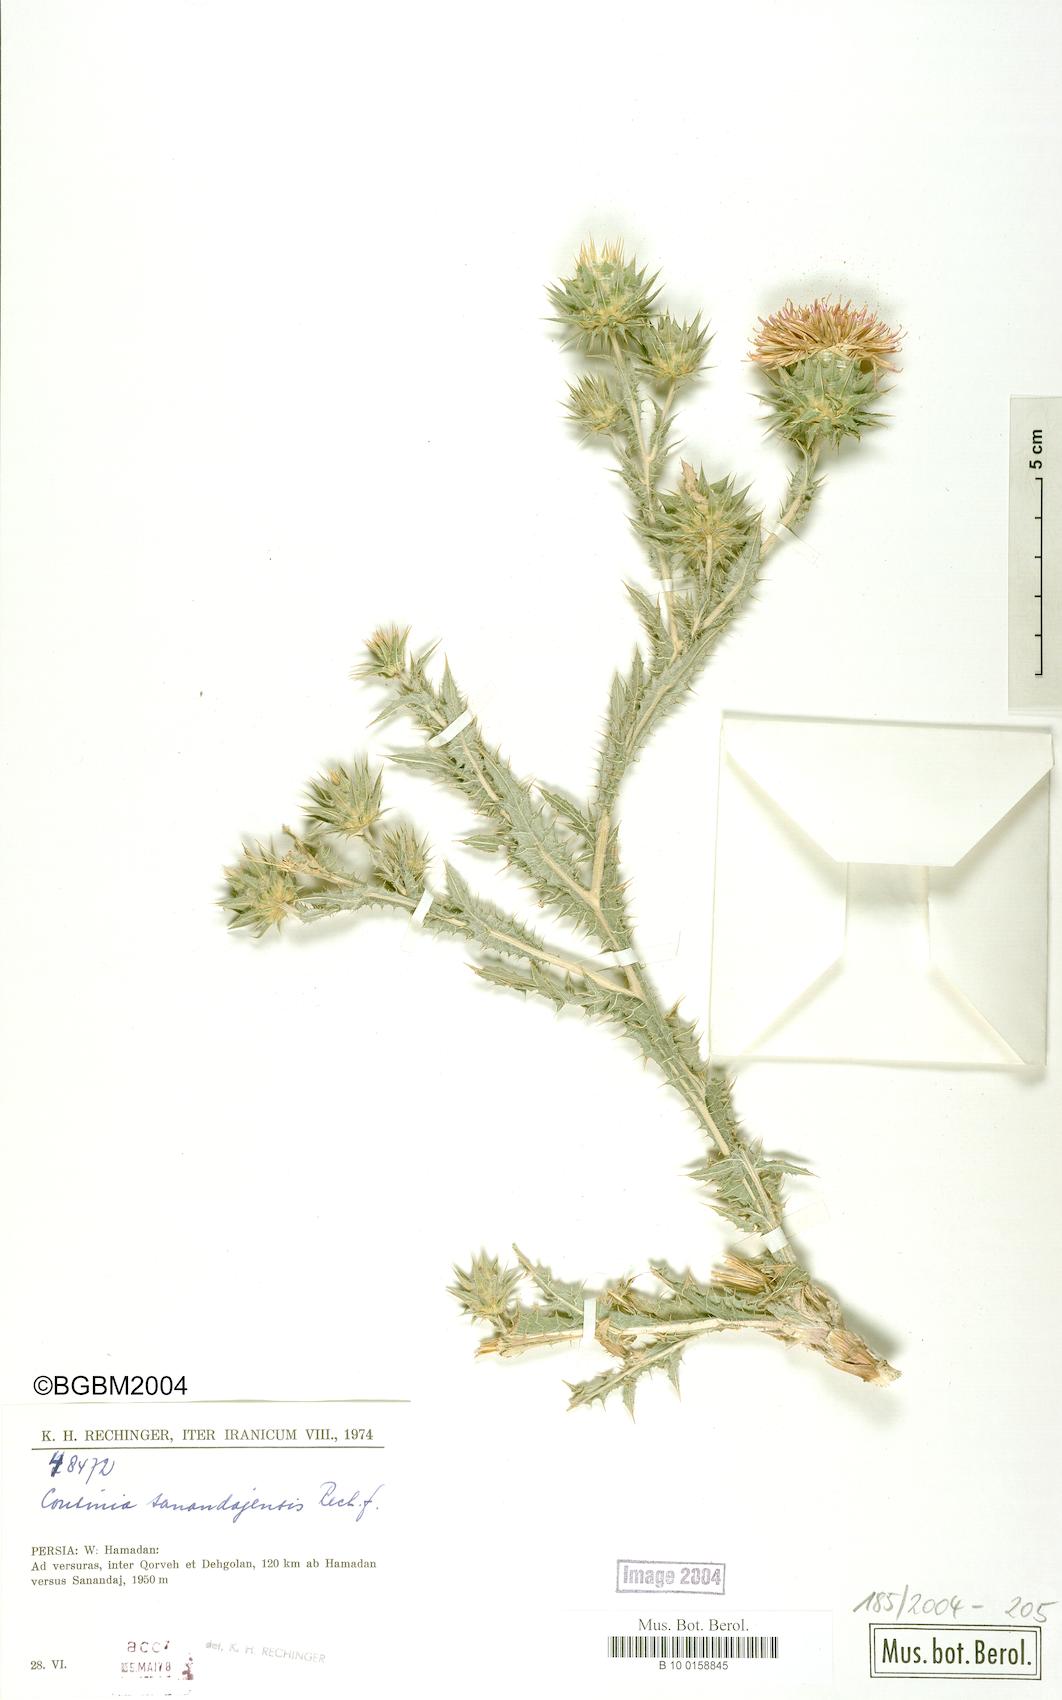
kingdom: Plantae
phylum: Tracheophyta
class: Magnoliopsida
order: Asterales
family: Asteraceae
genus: Cousinia
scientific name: Cousinia sanandajensis
